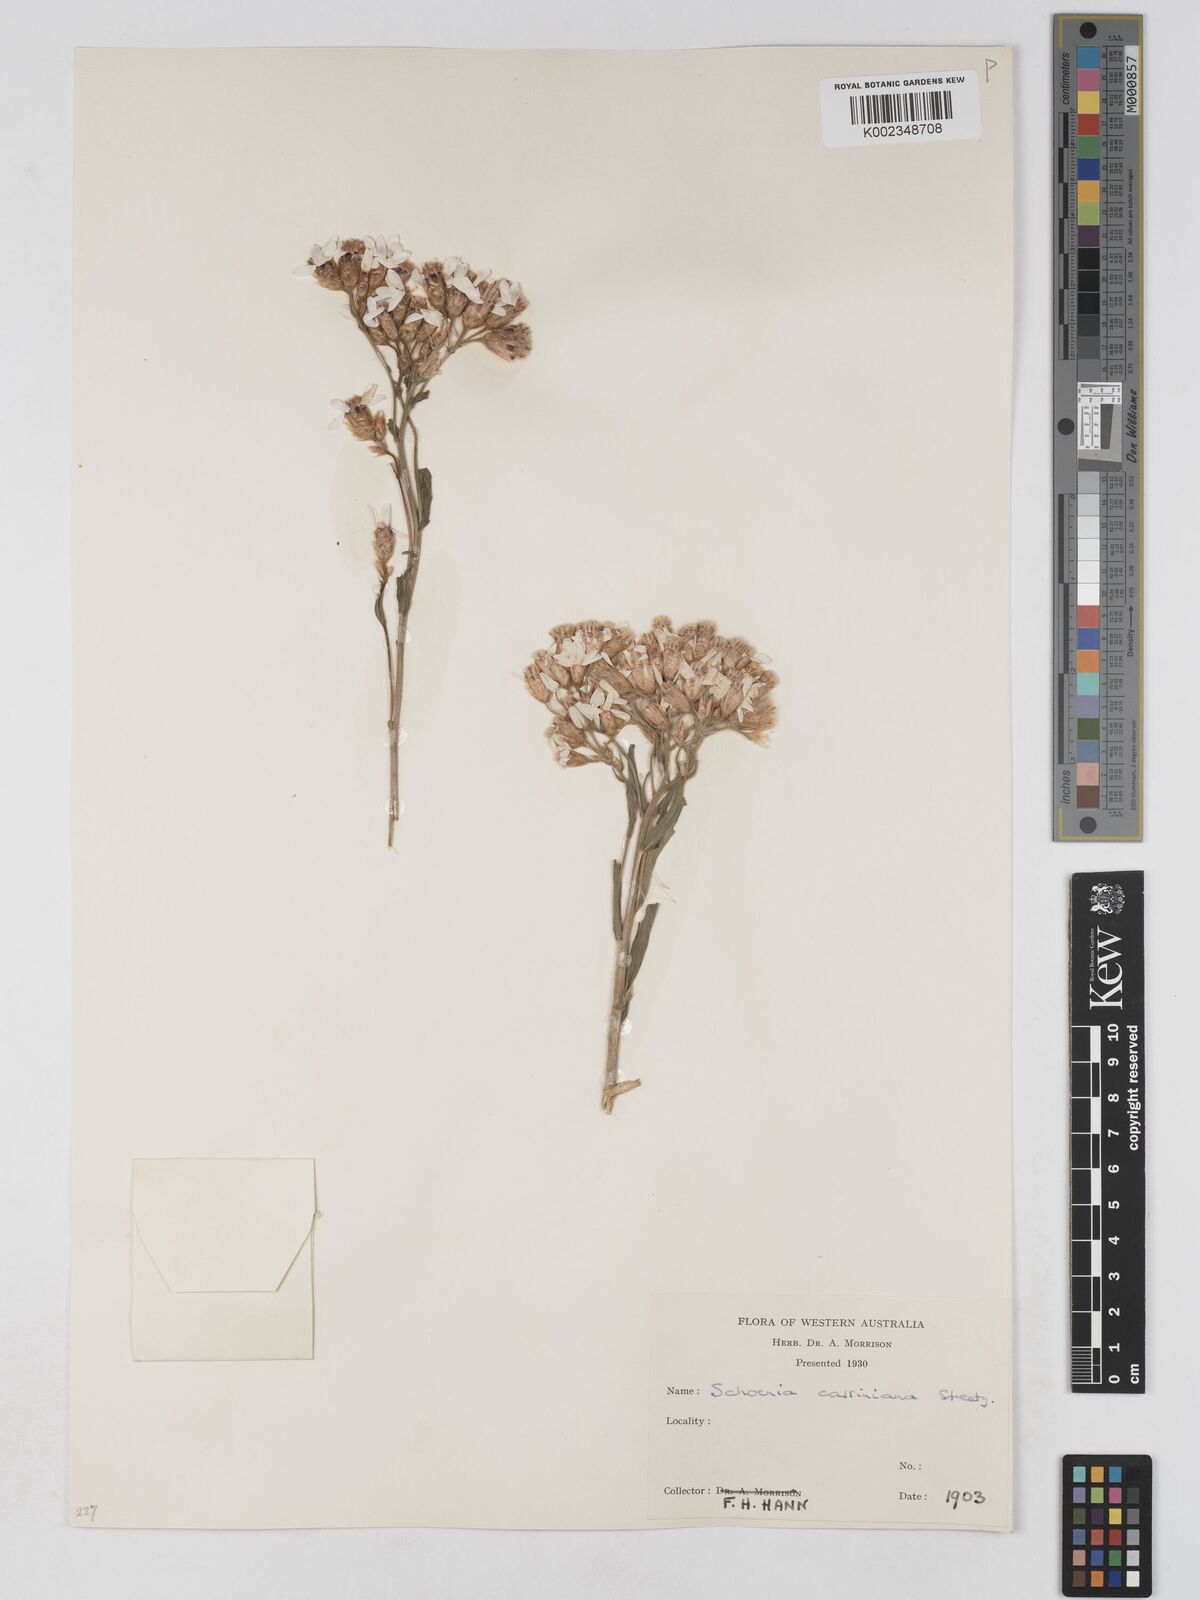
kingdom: Plantae
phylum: Tracheophyta
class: Magnoliopsida
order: Asterales
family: Asteraceae
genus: Schoenia
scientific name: Schoenia cassiniana
